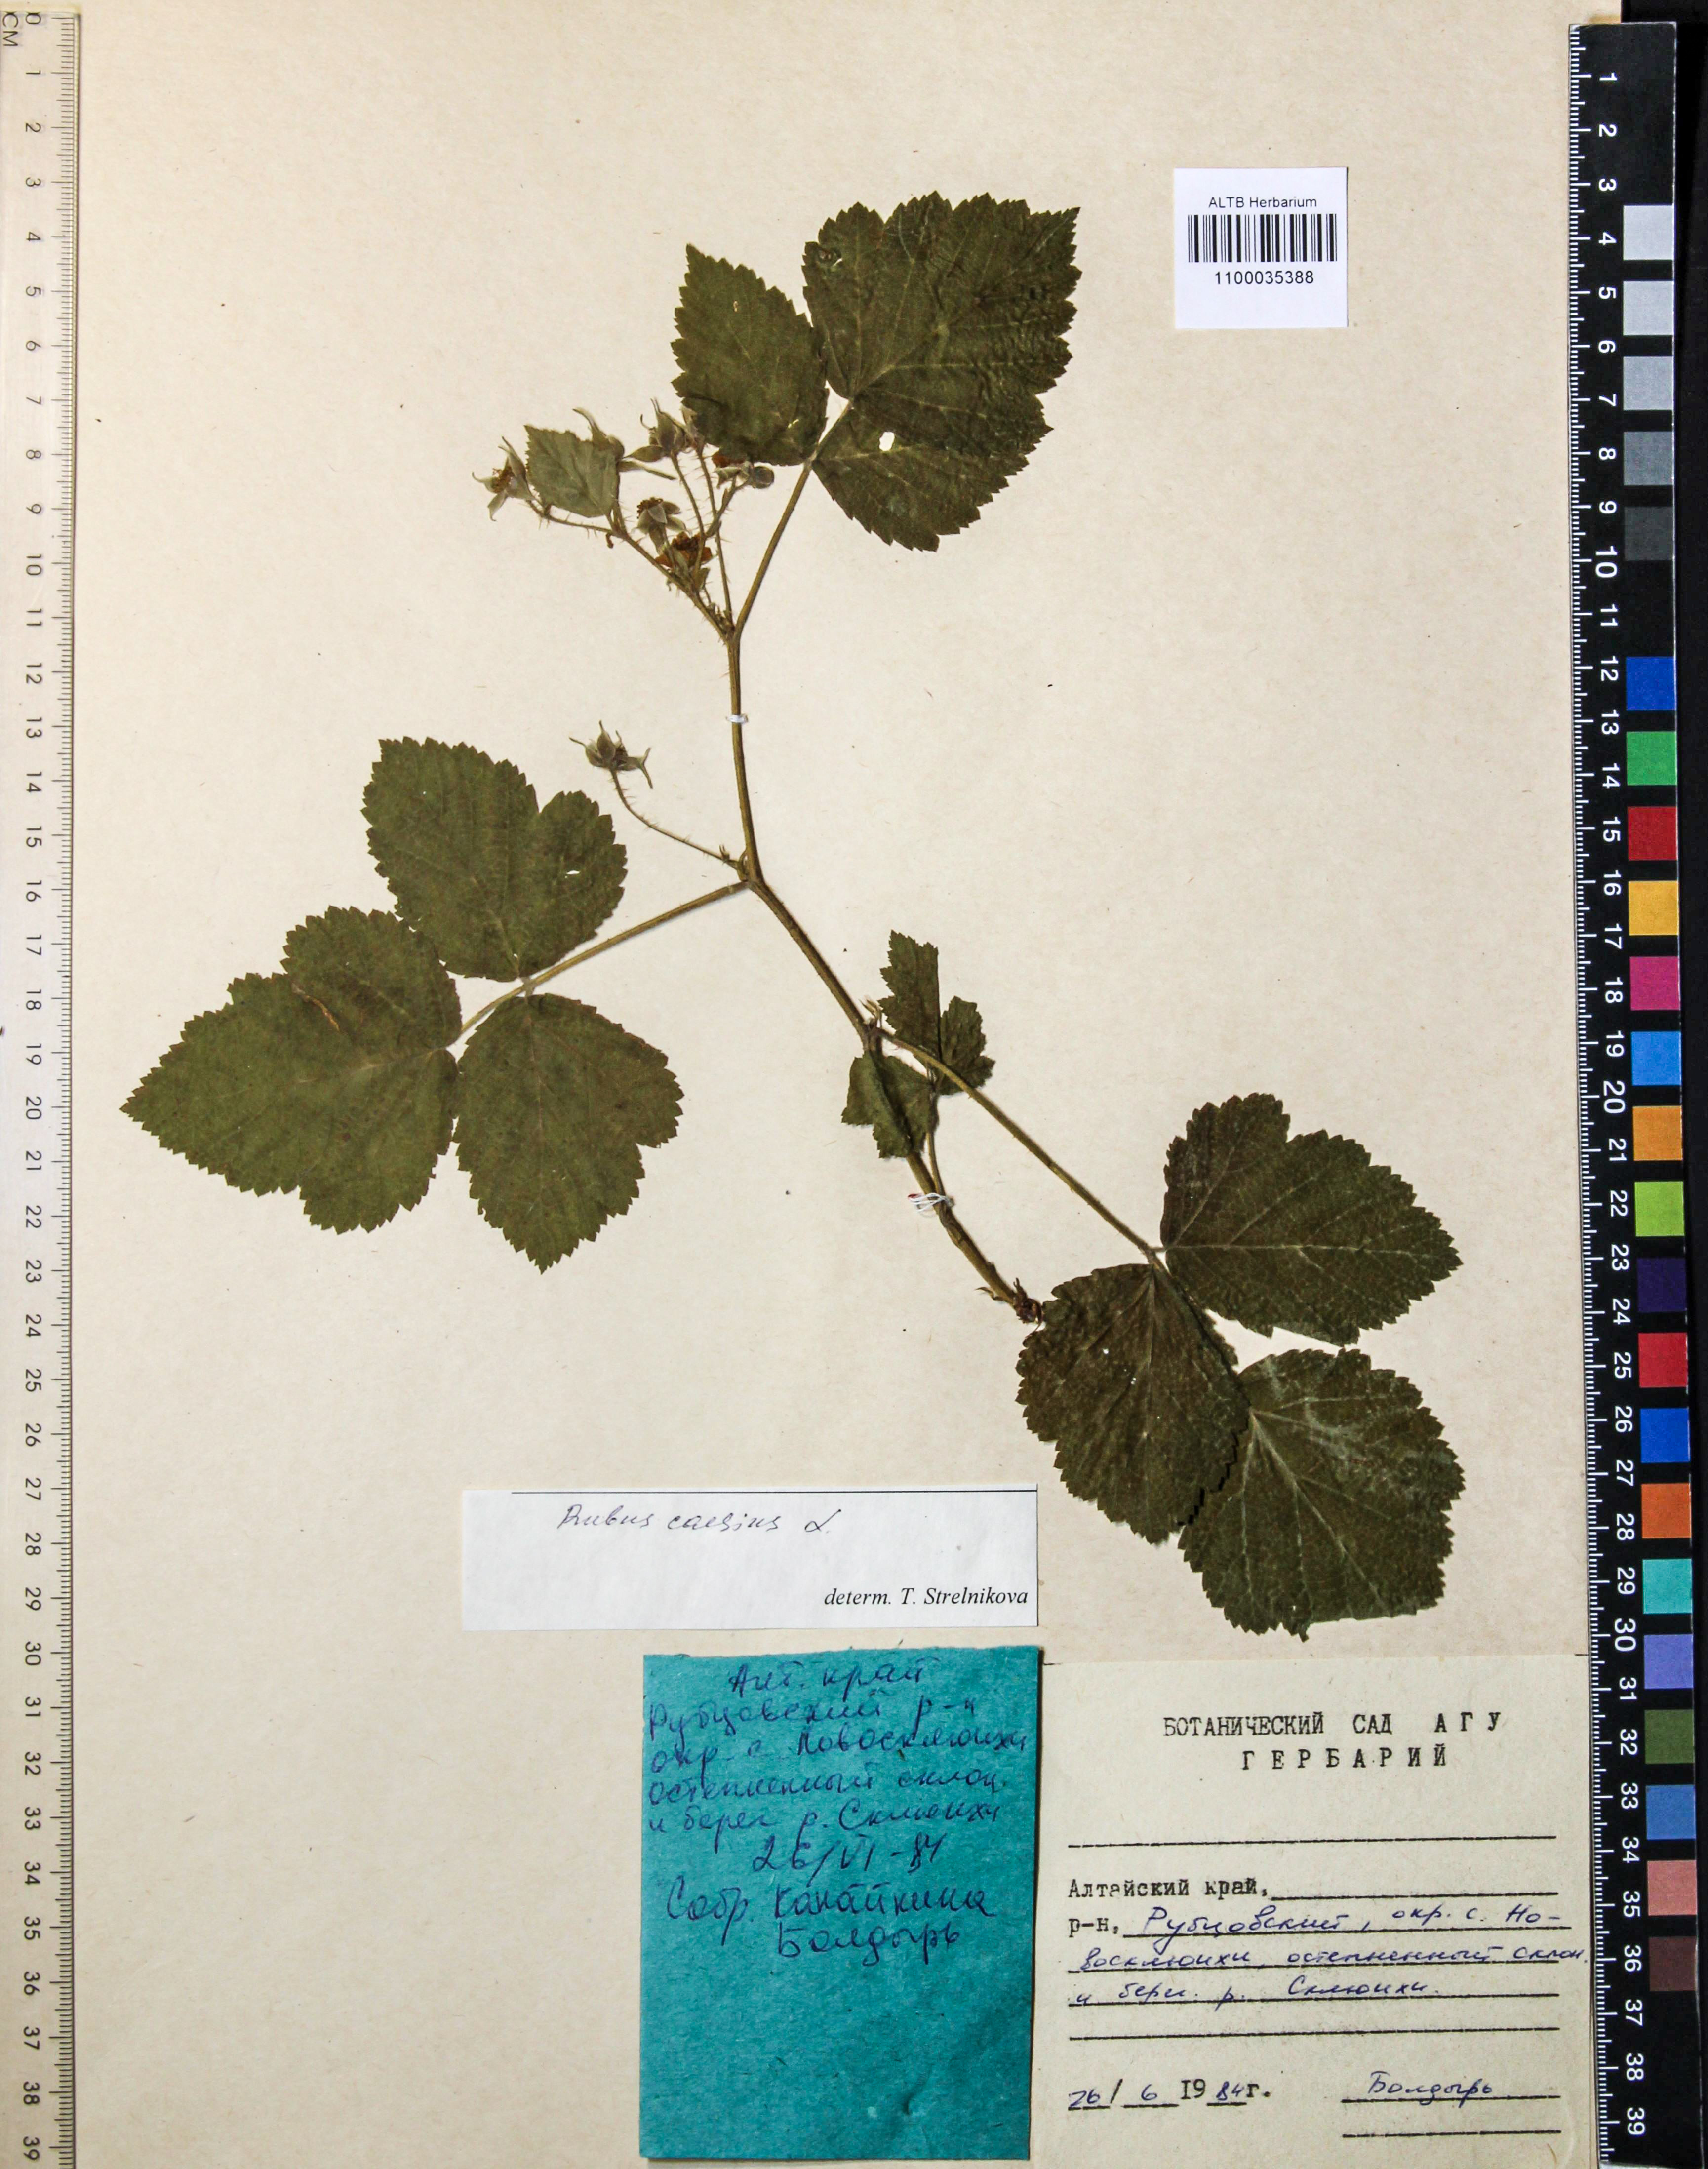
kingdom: Plantae
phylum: Tracheophyta
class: Magnoliopsida
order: Rosales
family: Rosaceae
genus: Rubus
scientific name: Rubus caesius
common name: Dewberry
